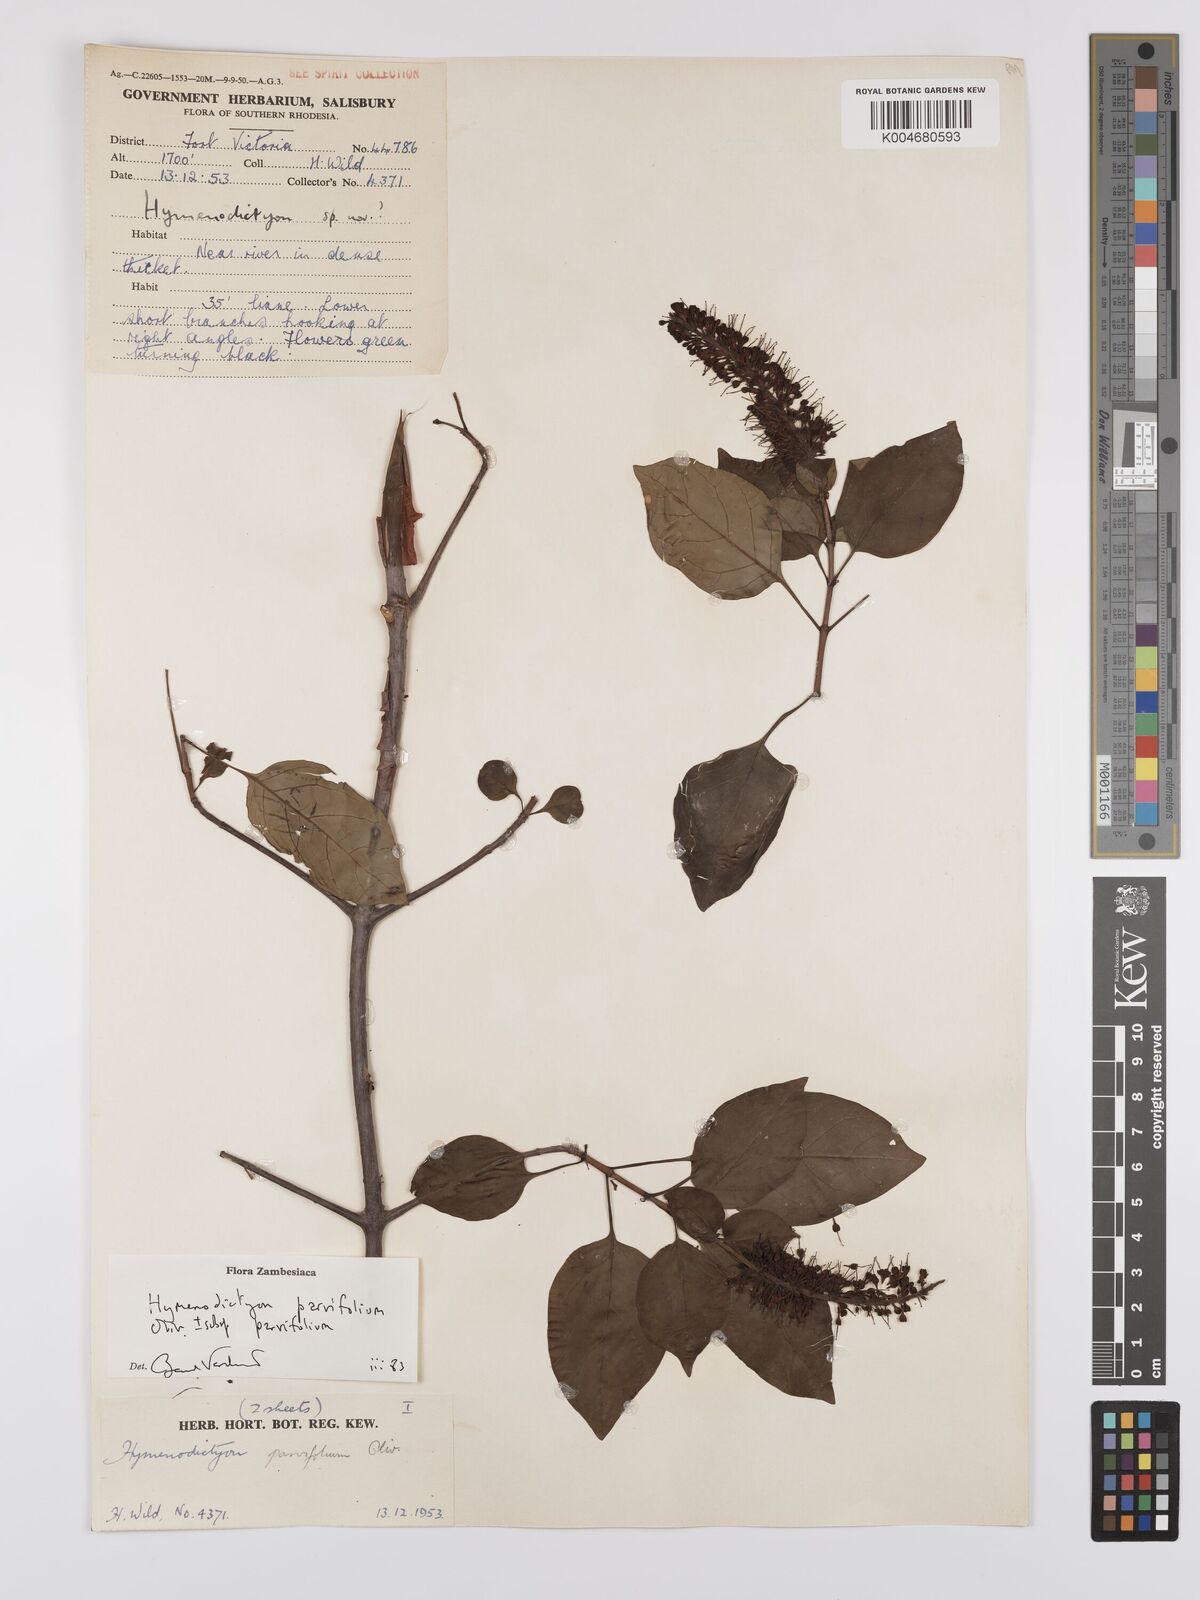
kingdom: Plantae
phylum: Tracheophyta
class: Magnoliopsida
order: Gentianales
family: Rubiaceae
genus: Hymenodictyon
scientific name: Hymenodictyon parvifolium
